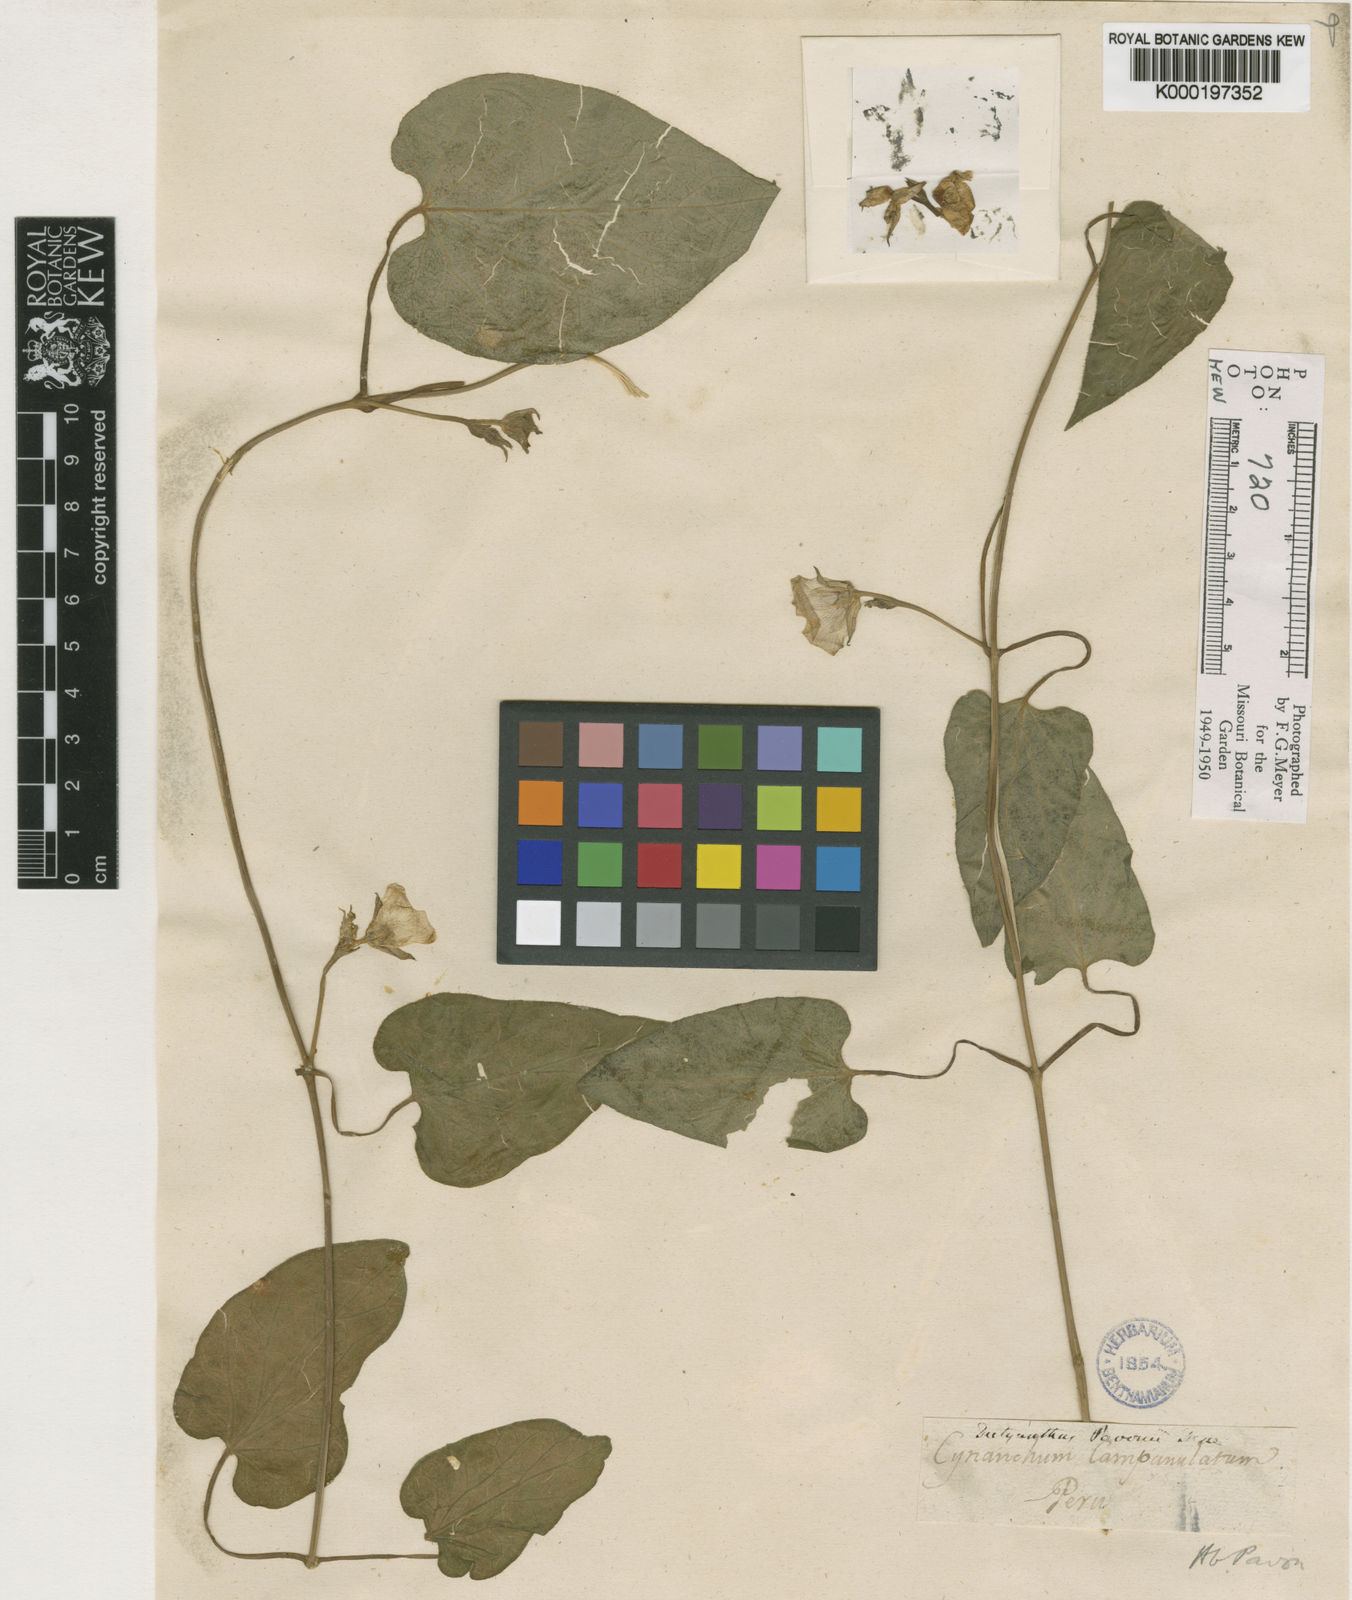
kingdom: Plantae
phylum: Tracheophyta
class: Magnoliopsida
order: Gentianales
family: Apocynaceae
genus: Dictyanthus
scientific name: Dictyanthus pavonii
